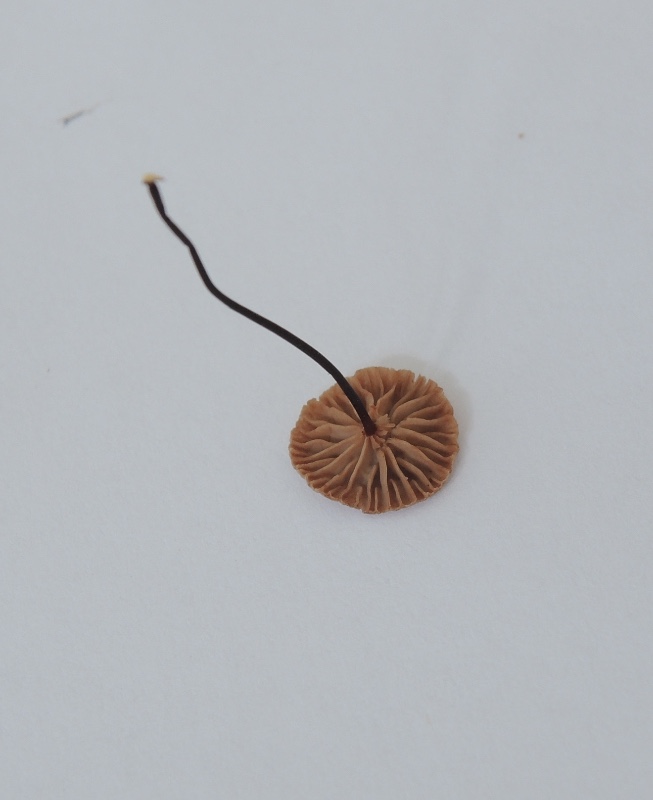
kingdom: Fungi
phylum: Basidiomycota
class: Agaricomycetes
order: Agaricales
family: Omphalotaceae
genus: Gymnopus
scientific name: Gymnopus androsaceus
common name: trådstokket fladhat
